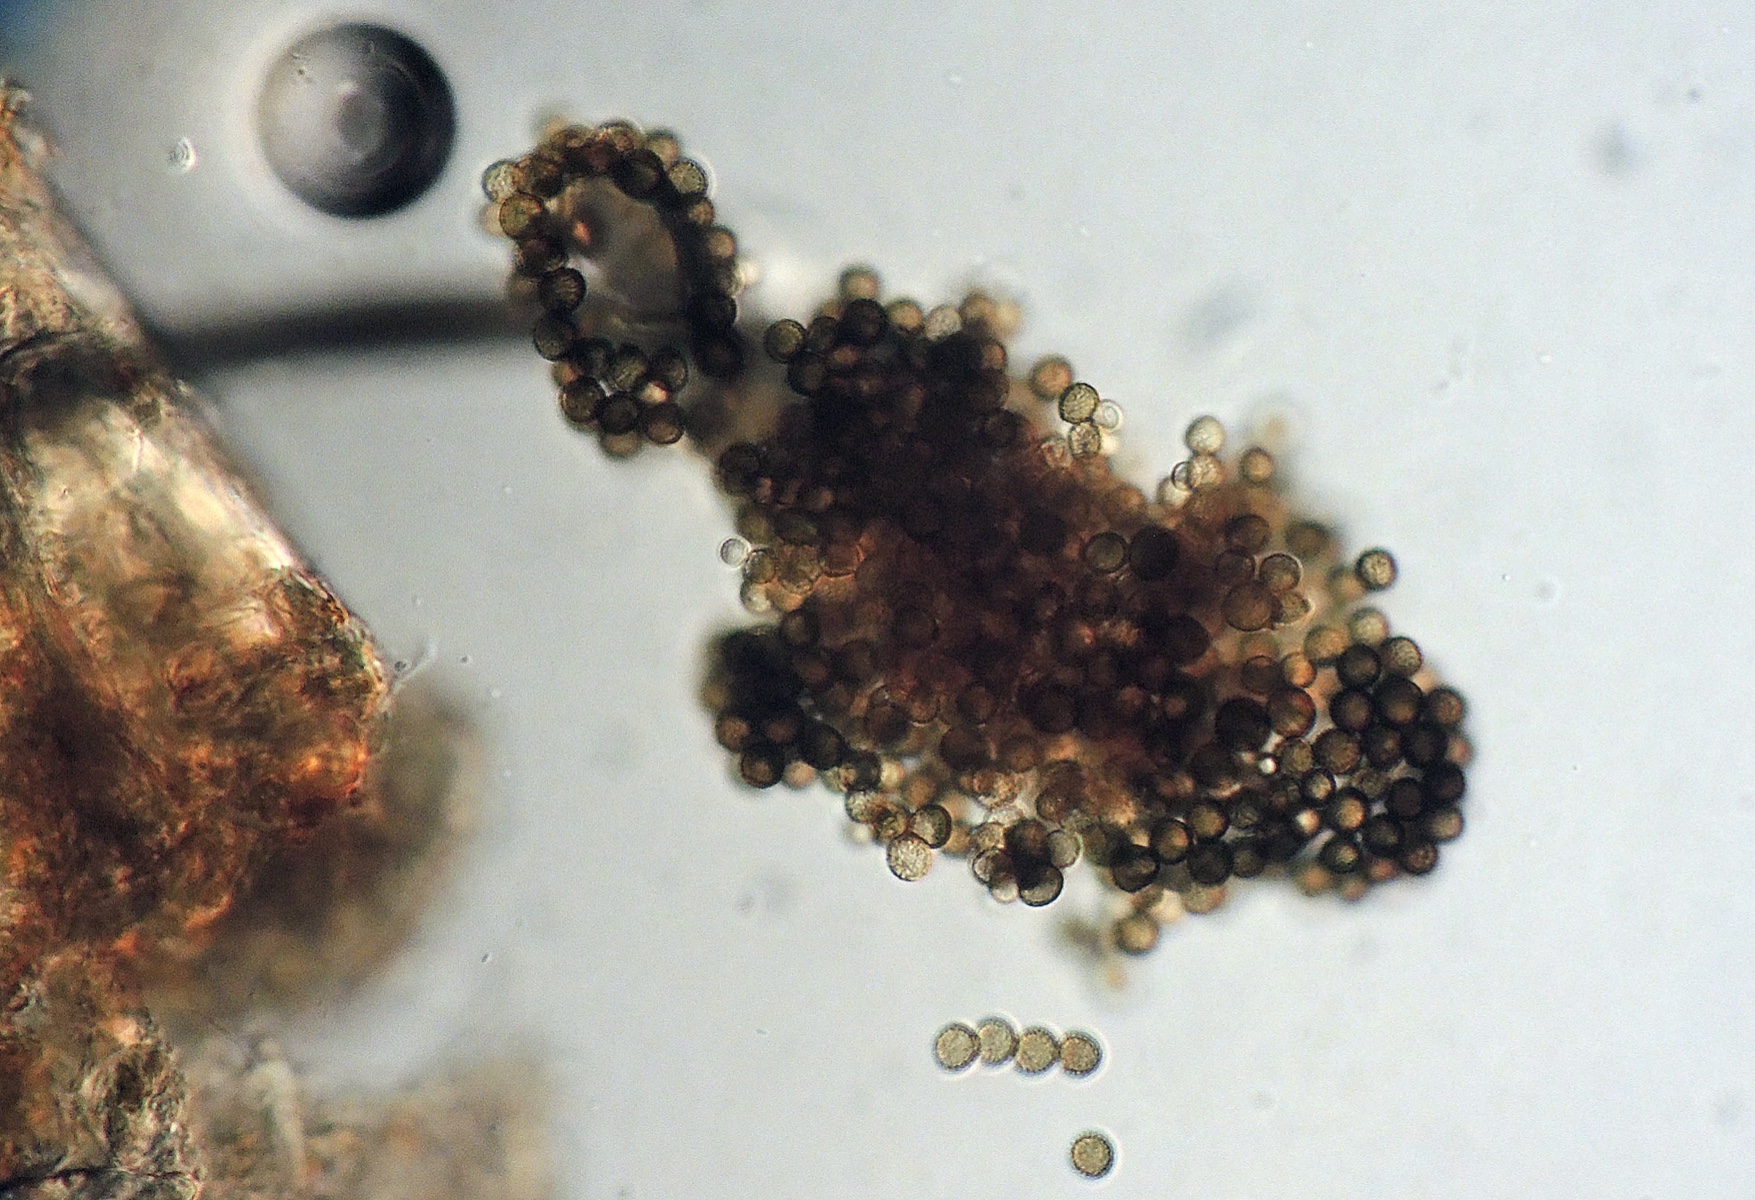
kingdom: Fungi
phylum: Ascomycota
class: Dothideomycetes
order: Pleosporales
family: Periconiaceae
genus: Periconia
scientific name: Periconia
